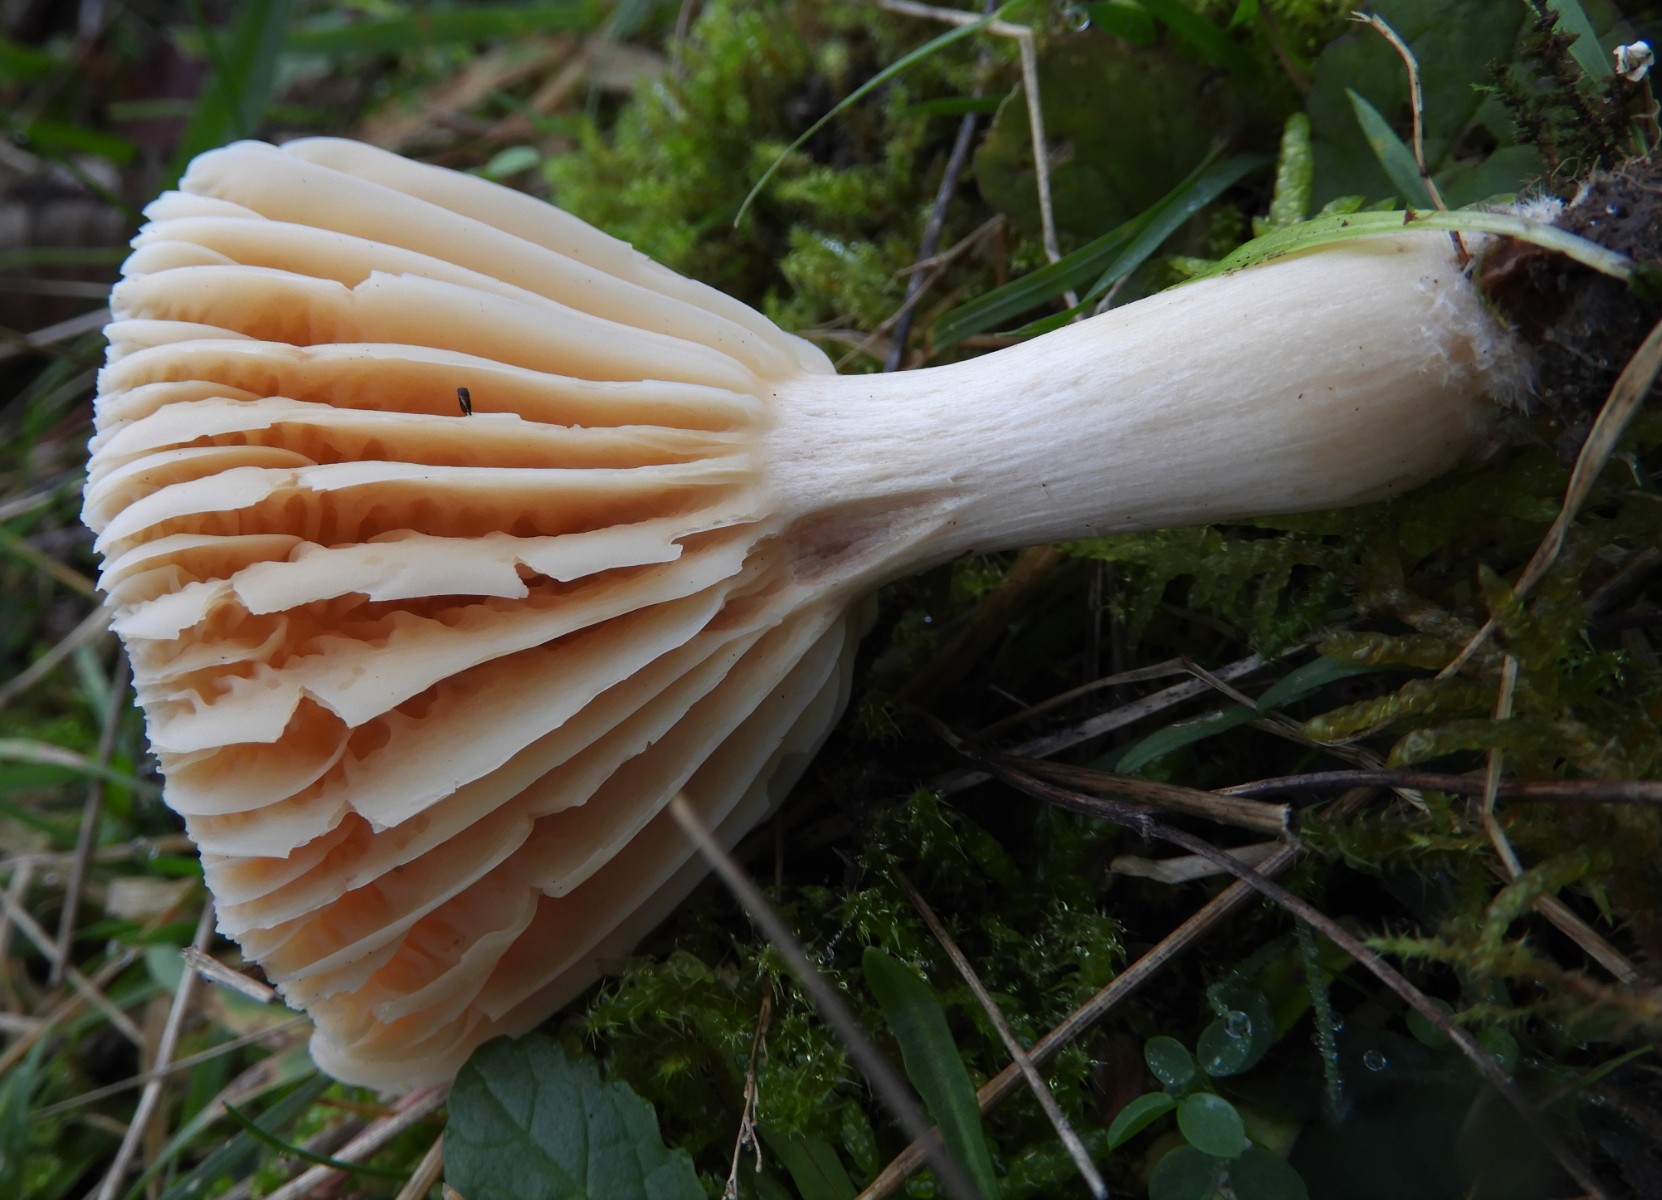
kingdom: Fungi
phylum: Basidiomycota
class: Agaricomycetes
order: Agaricales
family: Hygrophoraceae
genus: Cuphophyllus
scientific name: Cuphophyllus pratensis
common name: eng-vokshat
